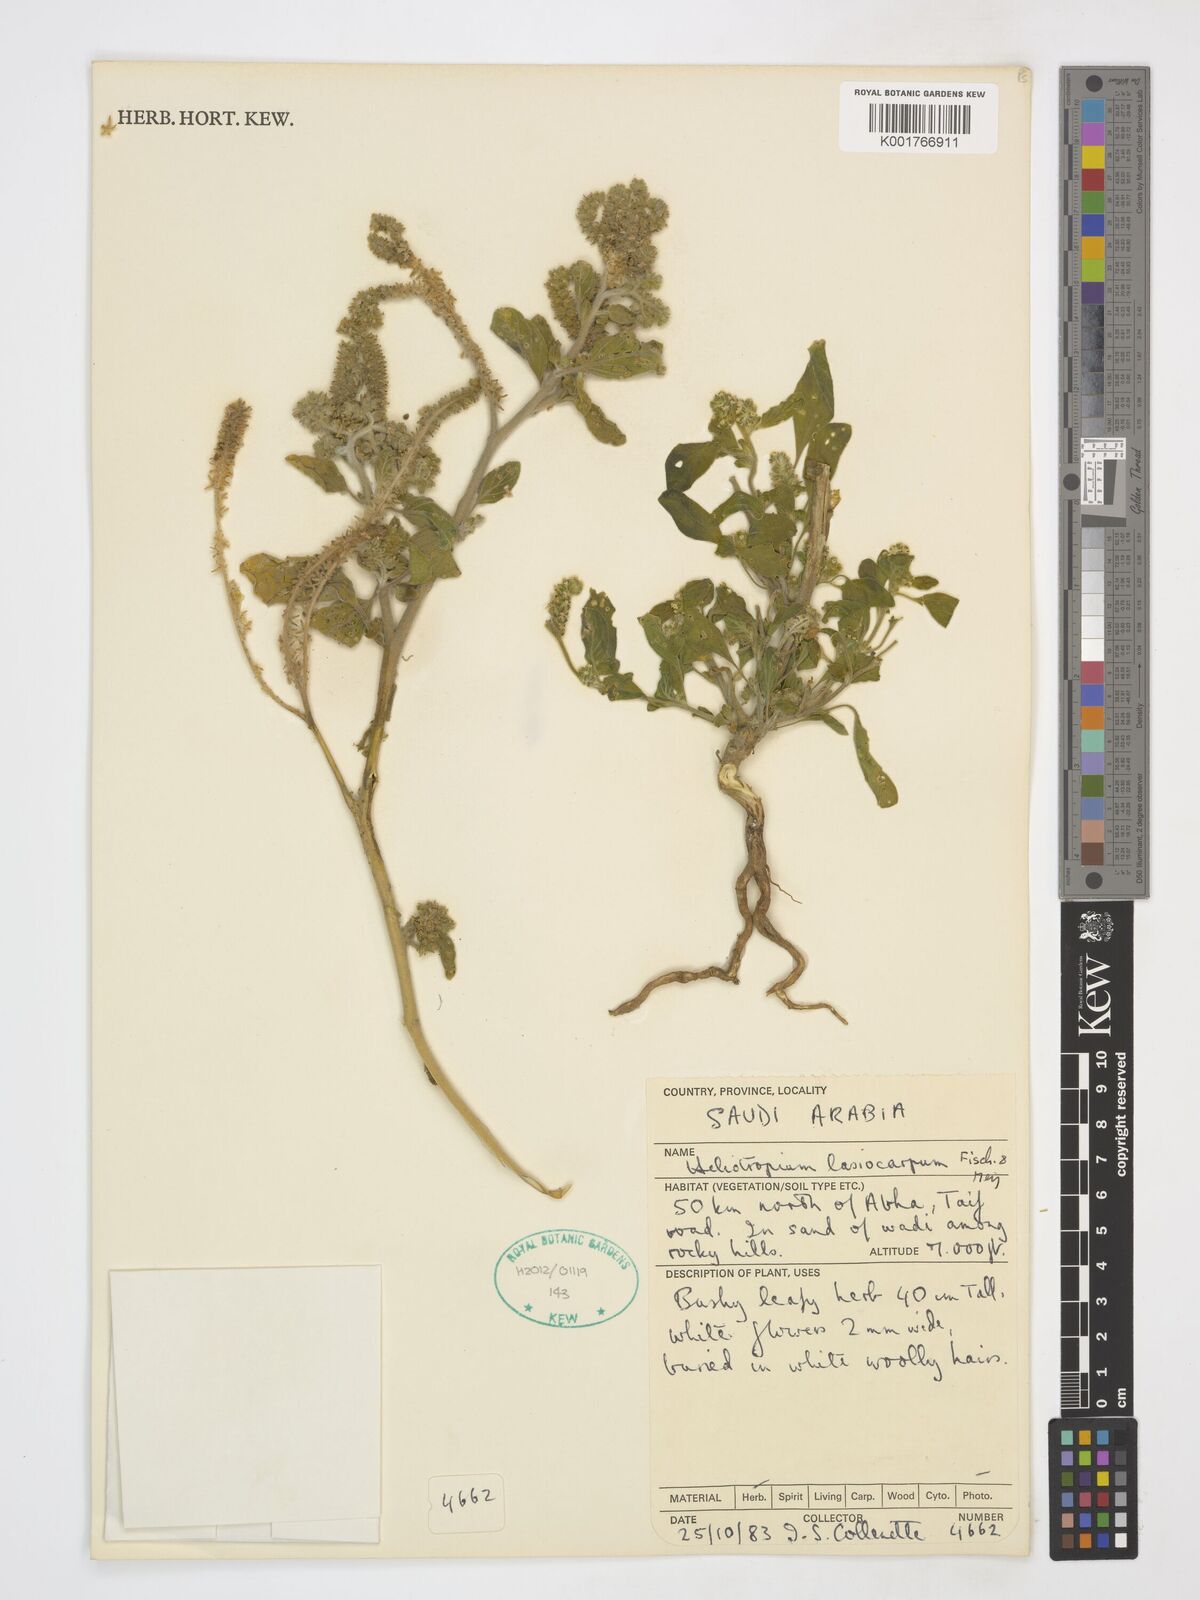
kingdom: Plantae
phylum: Tracheophyta
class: Magnoliopsida
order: Boraginales
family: Heliotropiaceae
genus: Heliotropium
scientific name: Heliotropium lasiocarpum
